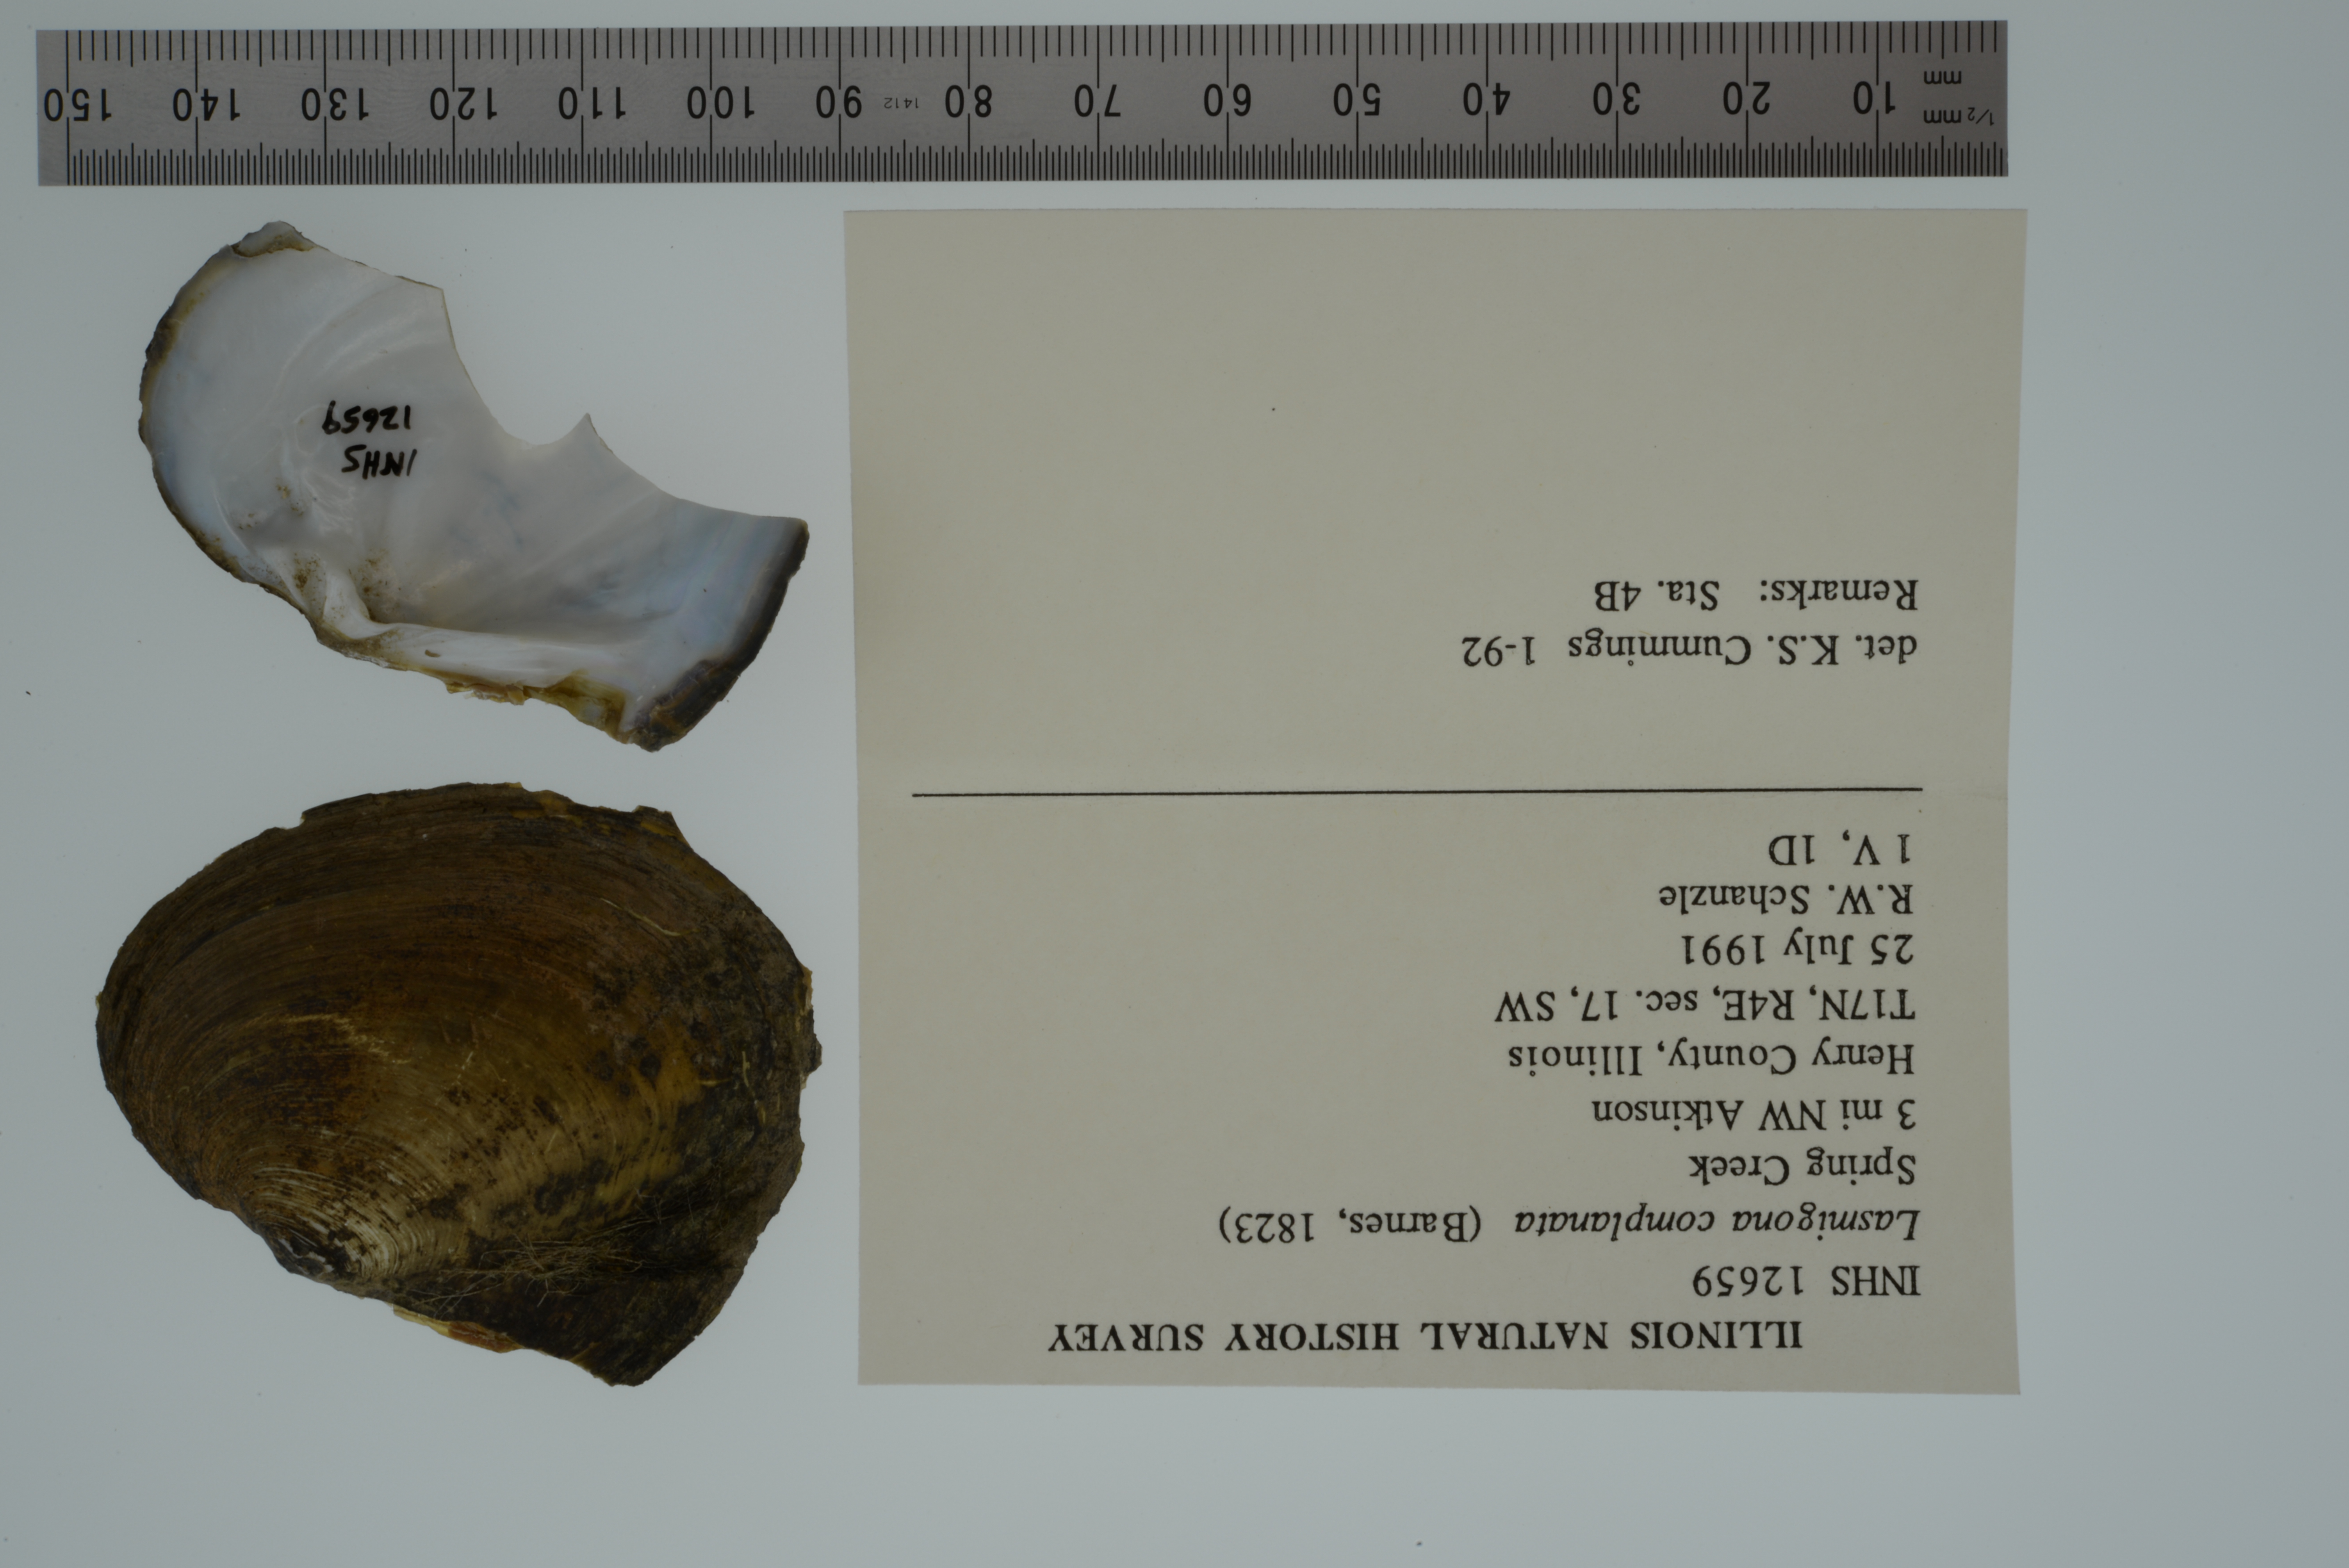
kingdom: Animalia
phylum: Mollusca
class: Bivalvia
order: Unionida
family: Unionidae
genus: Lasmigona
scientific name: Lasmigona complanata
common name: White heelsplitter
